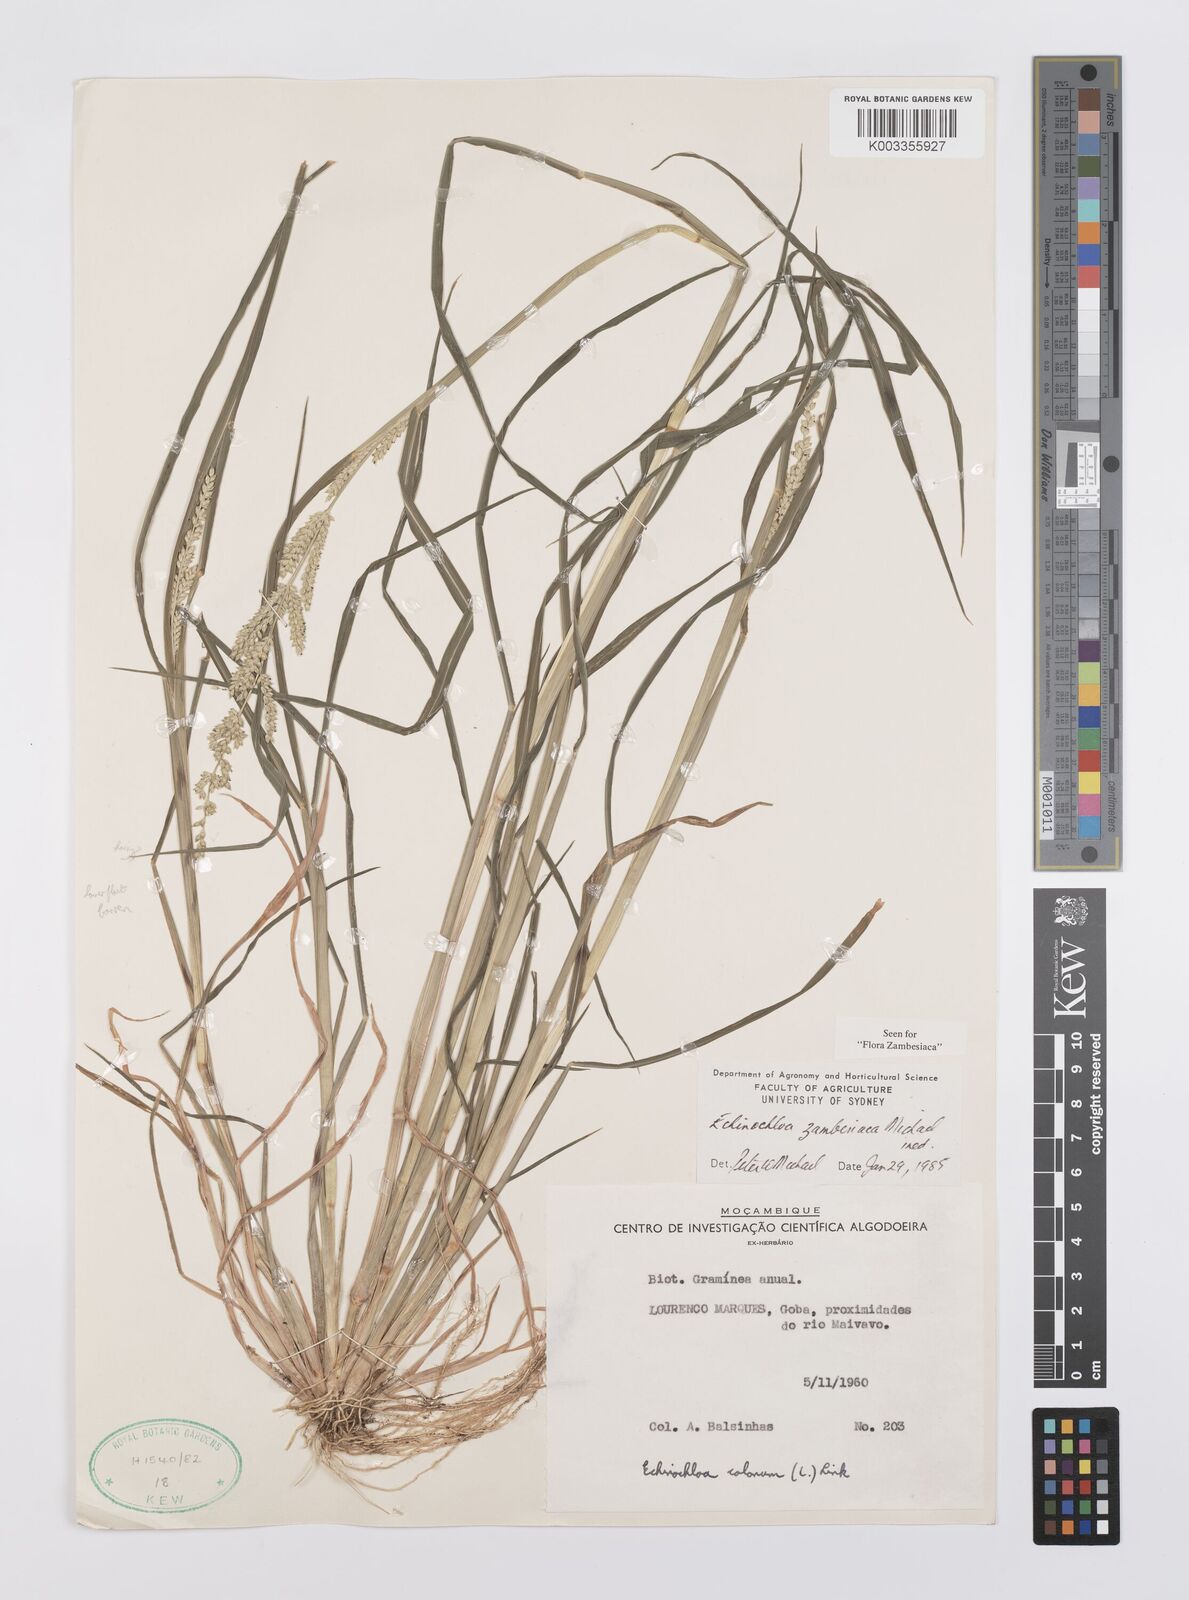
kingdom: Plantae
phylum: Tracheophyta
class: Liliopsida
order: Poales
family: Poaceae
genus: Echinochloa
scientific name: Echinochloa ugandensis
